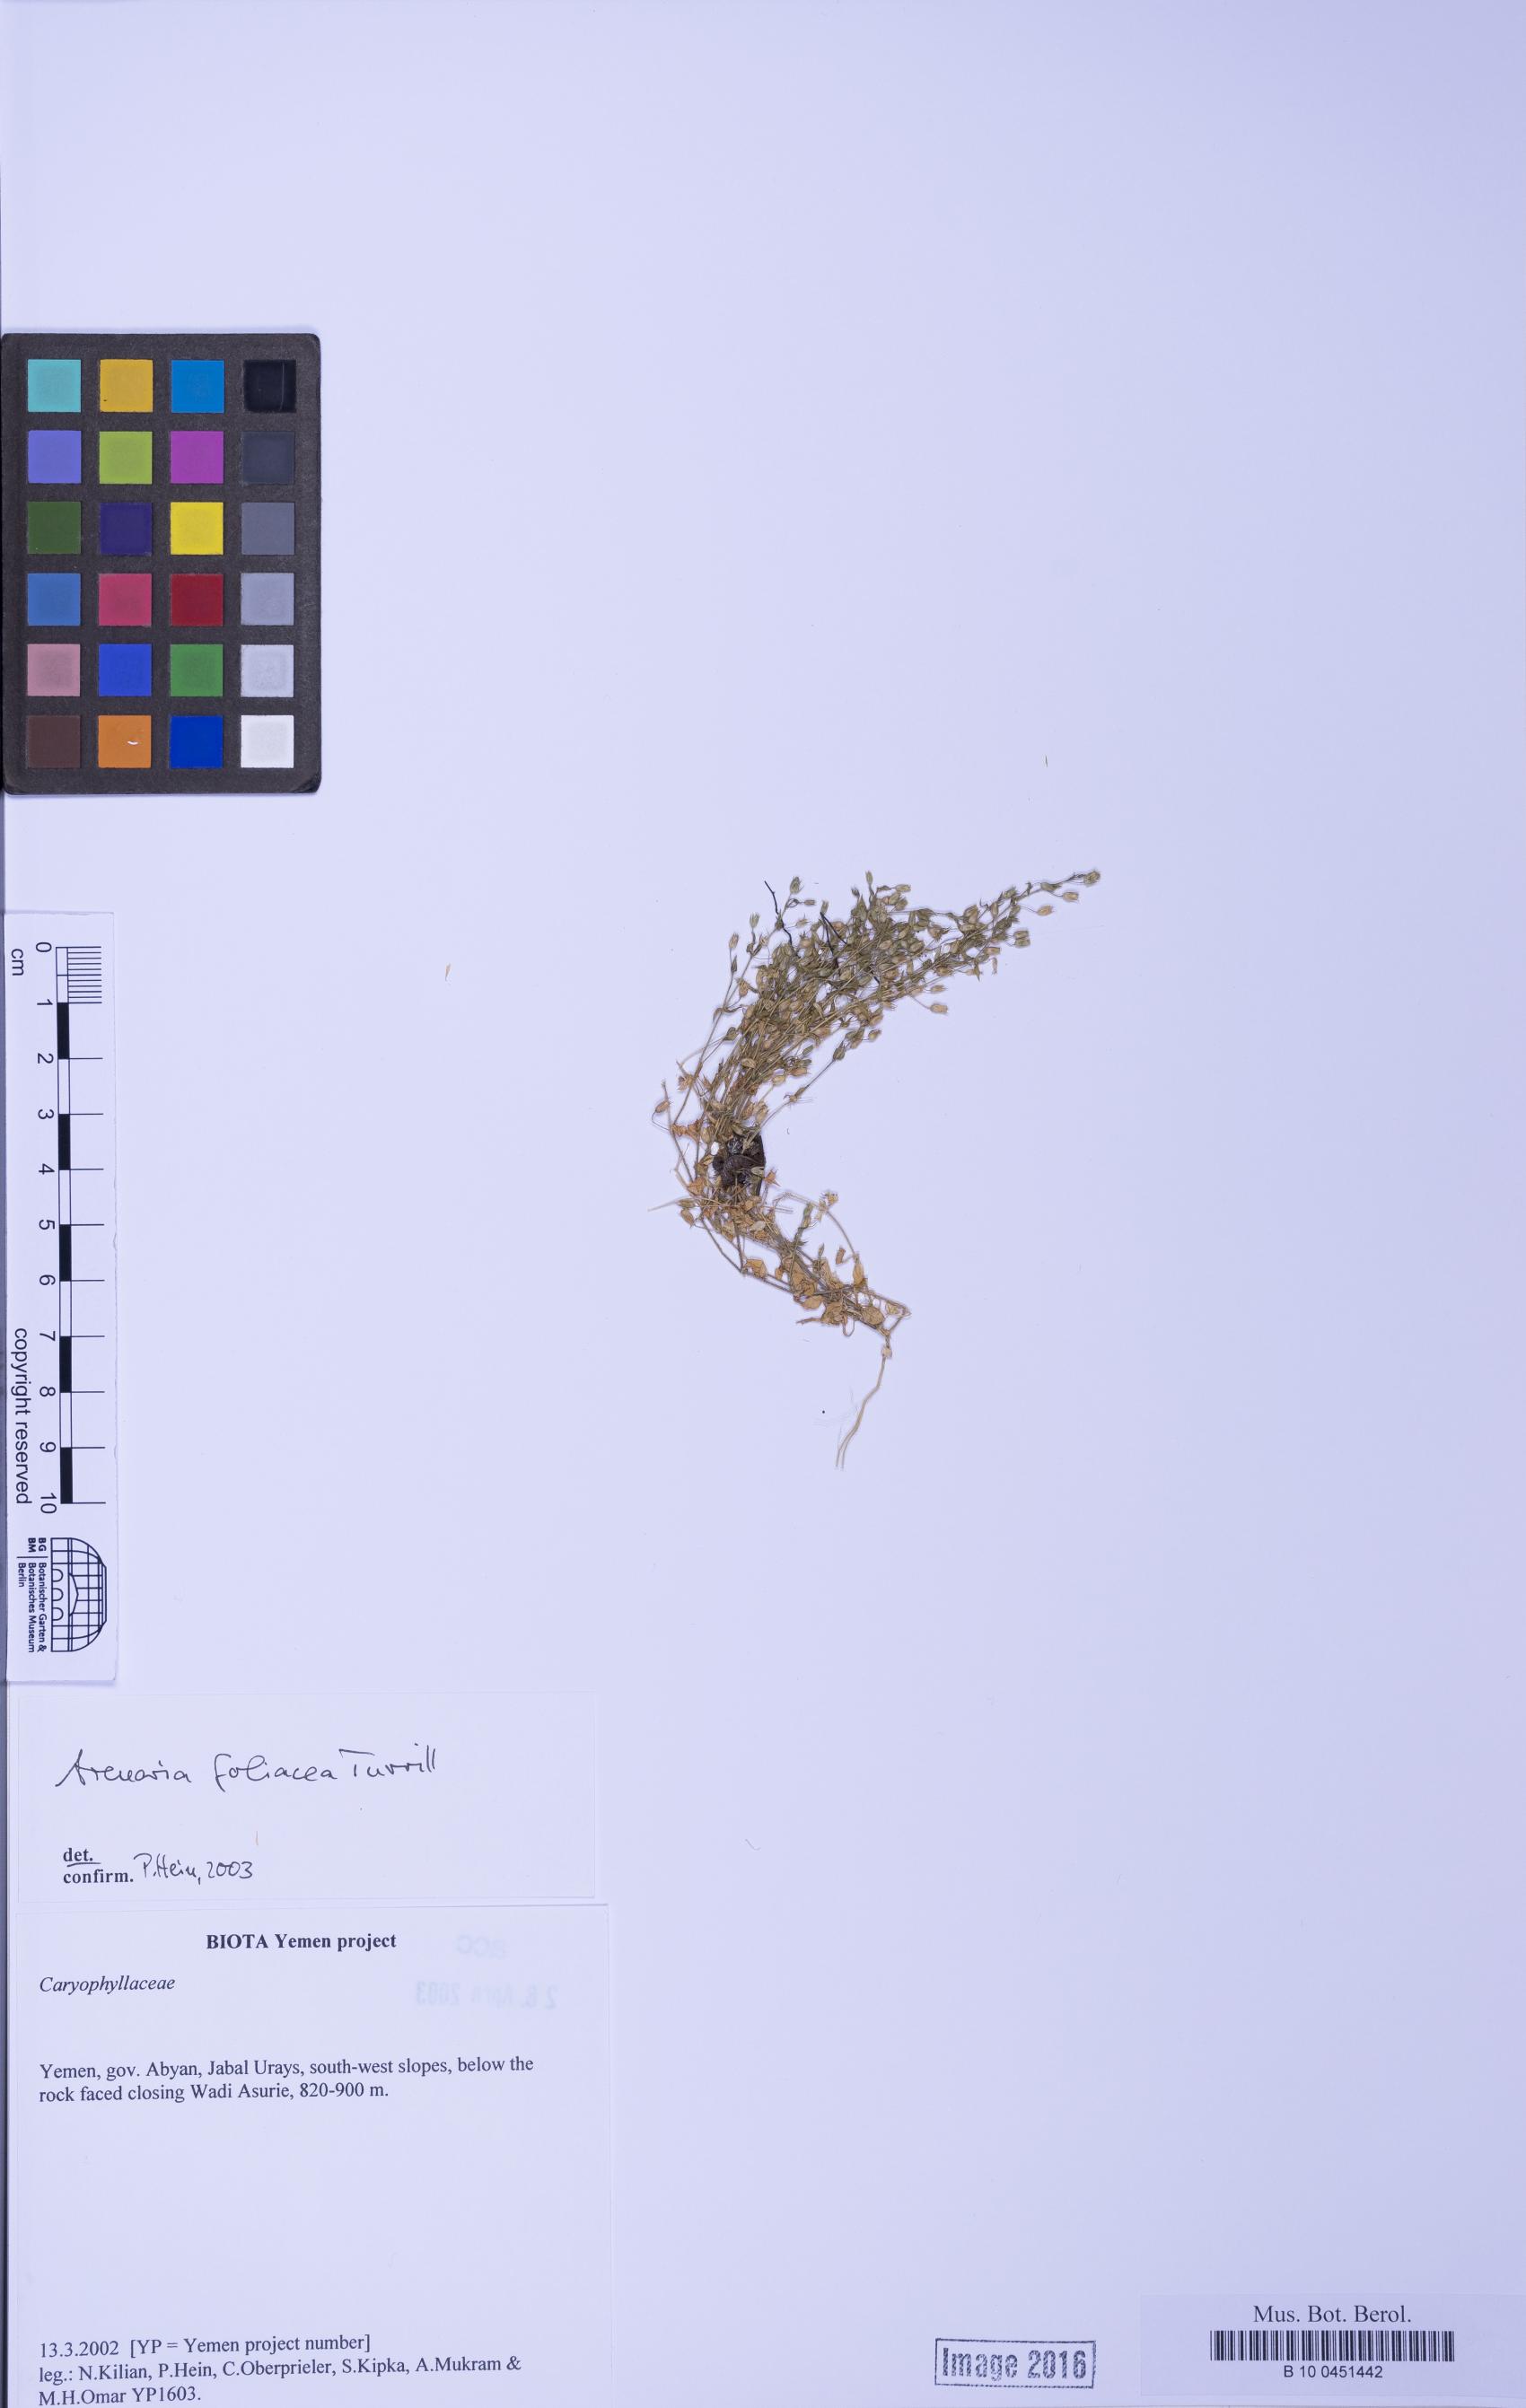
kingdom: Plantae
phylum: Tracheophyta
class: Magnoliopsida
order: Caryophyllales
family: Caryophyllaceae
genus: Arenaria
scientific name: Arenaria leptoclados
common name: Thyme-leaved sandwort
